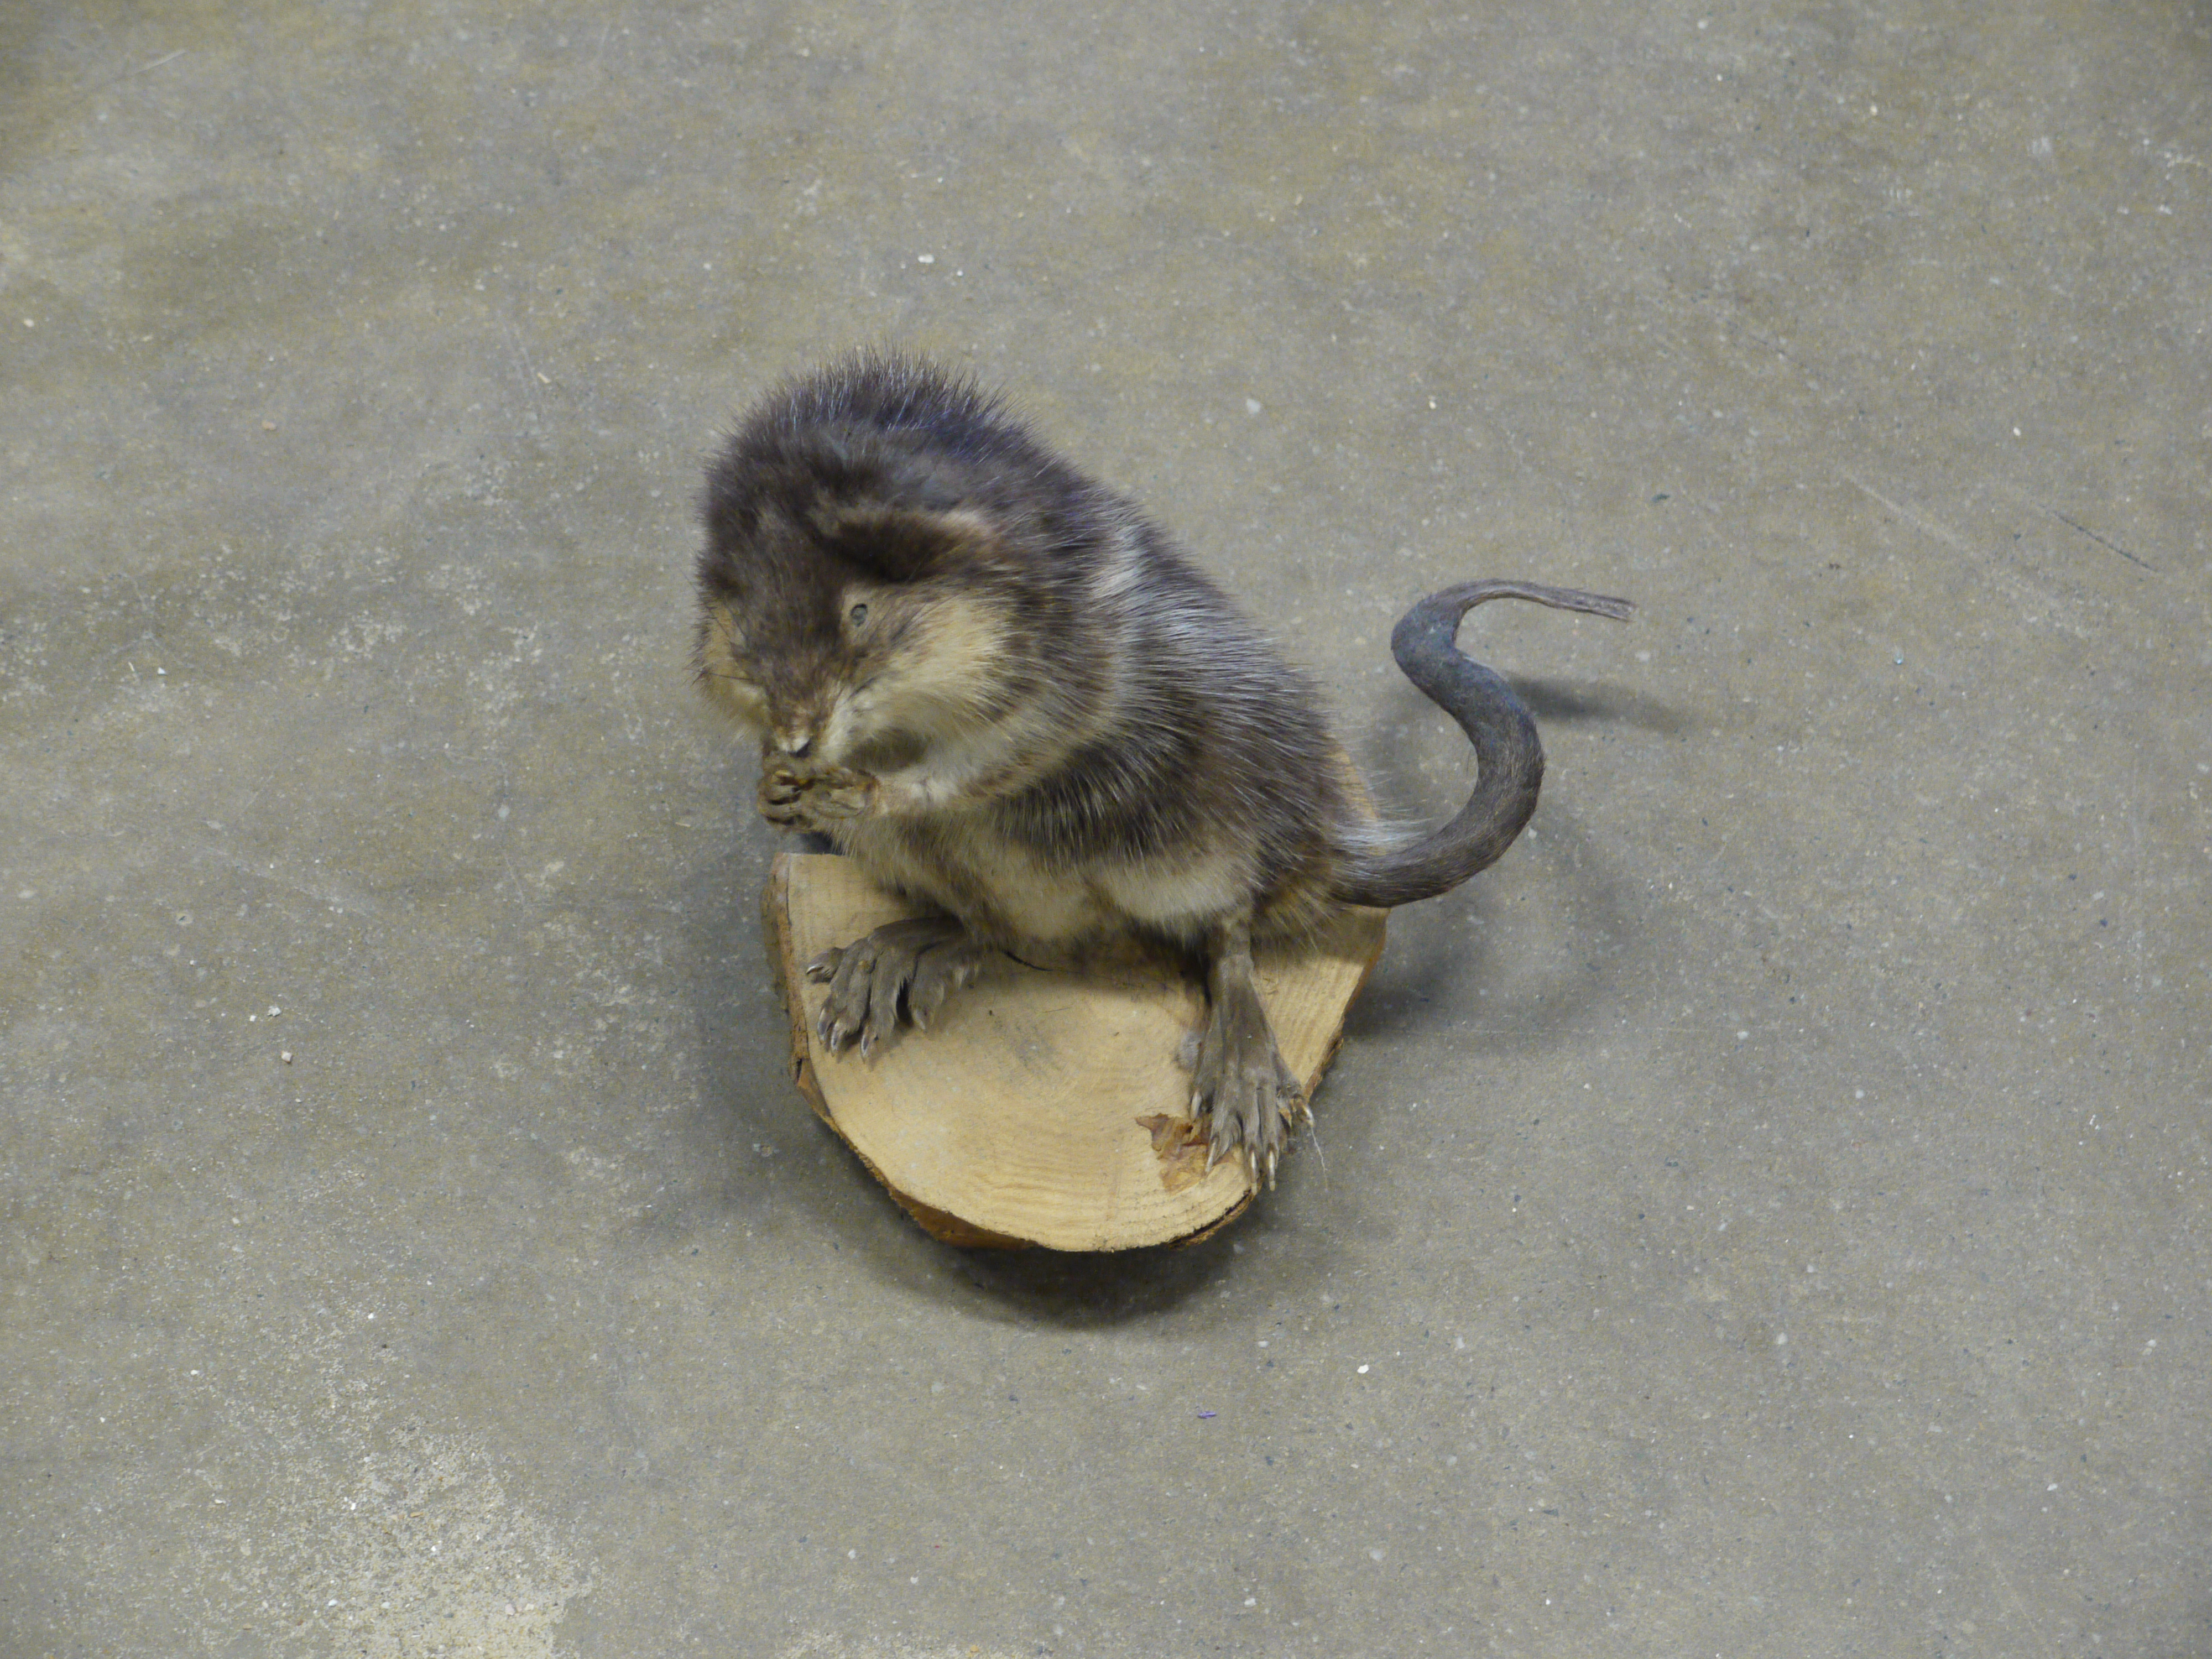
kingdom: Animalia
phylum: Chordata
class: Mammalia
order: Rodentia
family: Cricetidae
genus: Ondatra
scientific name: Ondatra zibethicus
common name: Muskrat
